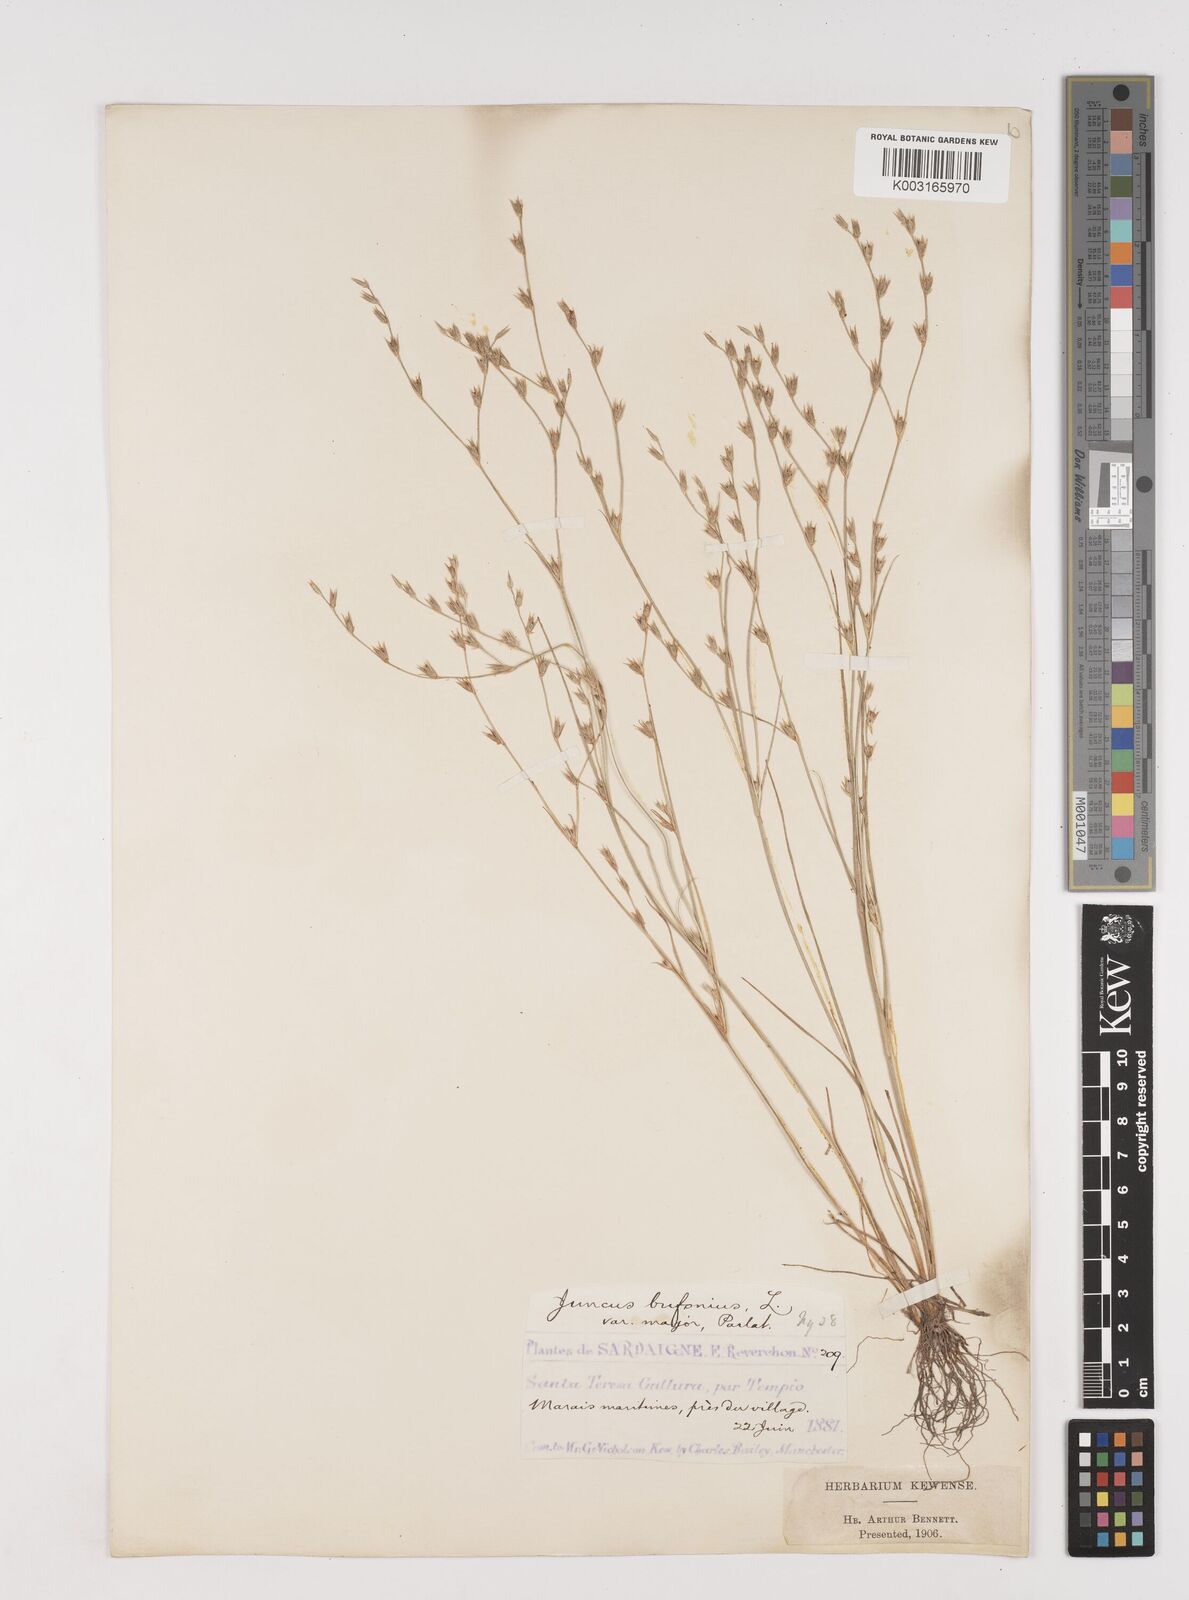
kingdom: Plantae
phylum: Tracheophyta
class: Liliopsida
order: Poales
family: Juncaceae
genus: Juncus
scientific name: Juncus bufonius
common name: Toad rush
